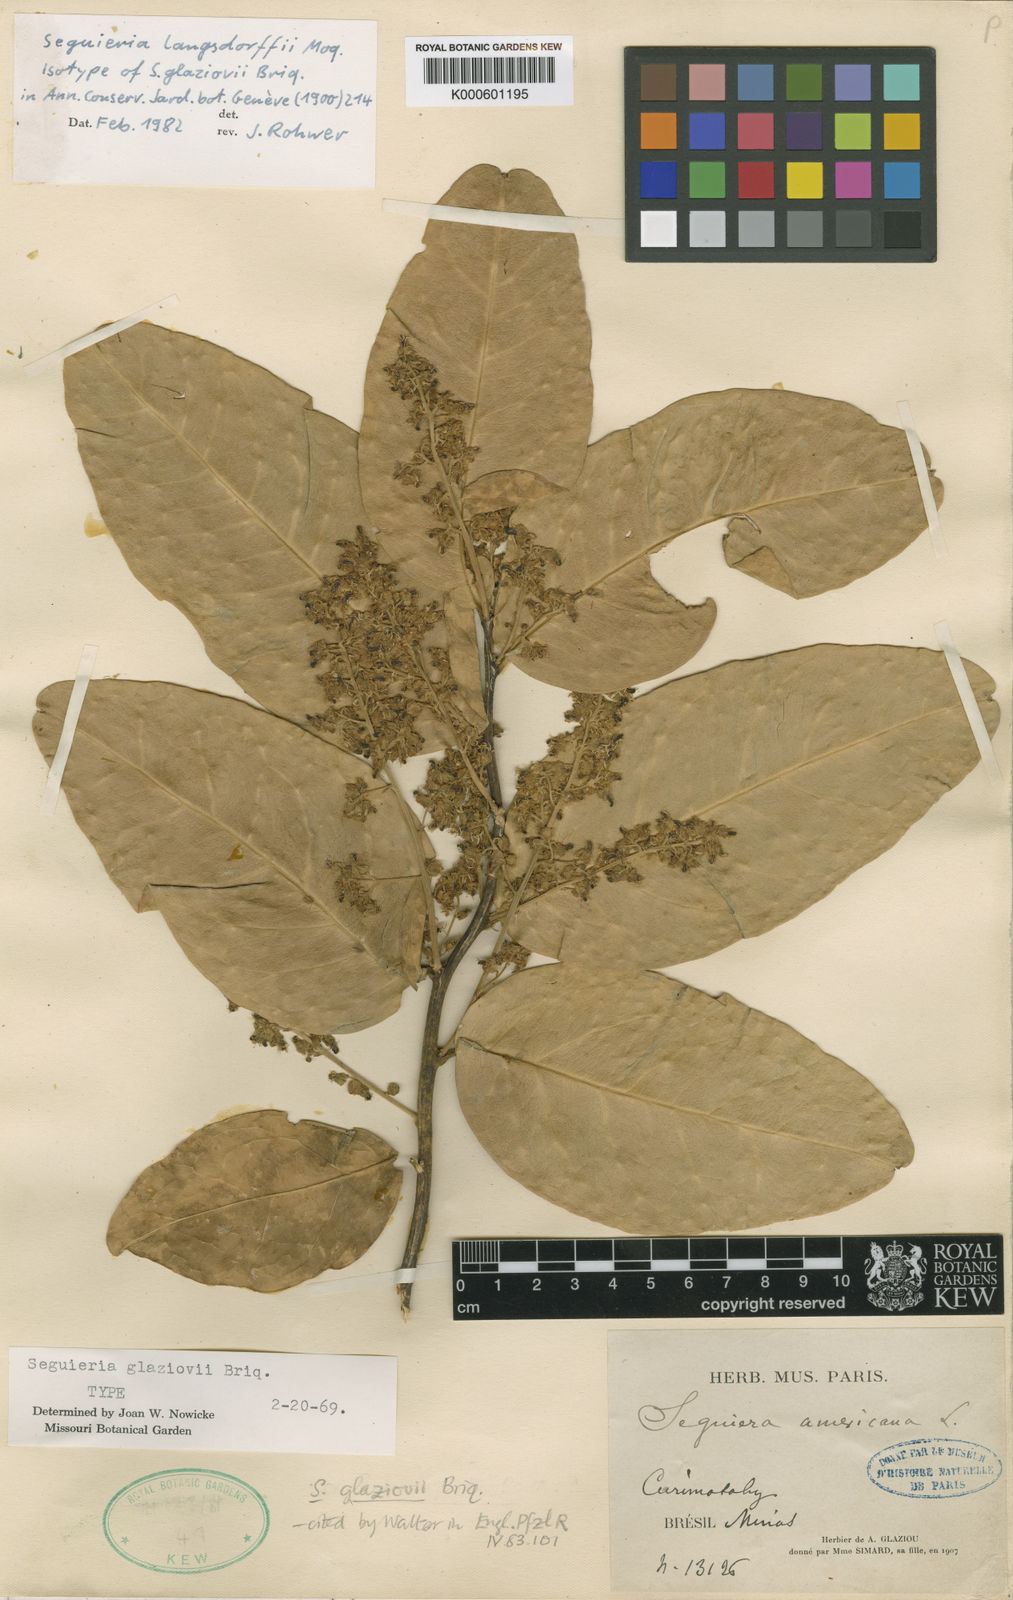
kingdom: Plantae
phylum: Tracheophyta
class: Magnoliopsida
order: Caryophyllales
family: Phytolaccaceae
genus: Seguieria
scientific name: Seguieria langsdorffii
